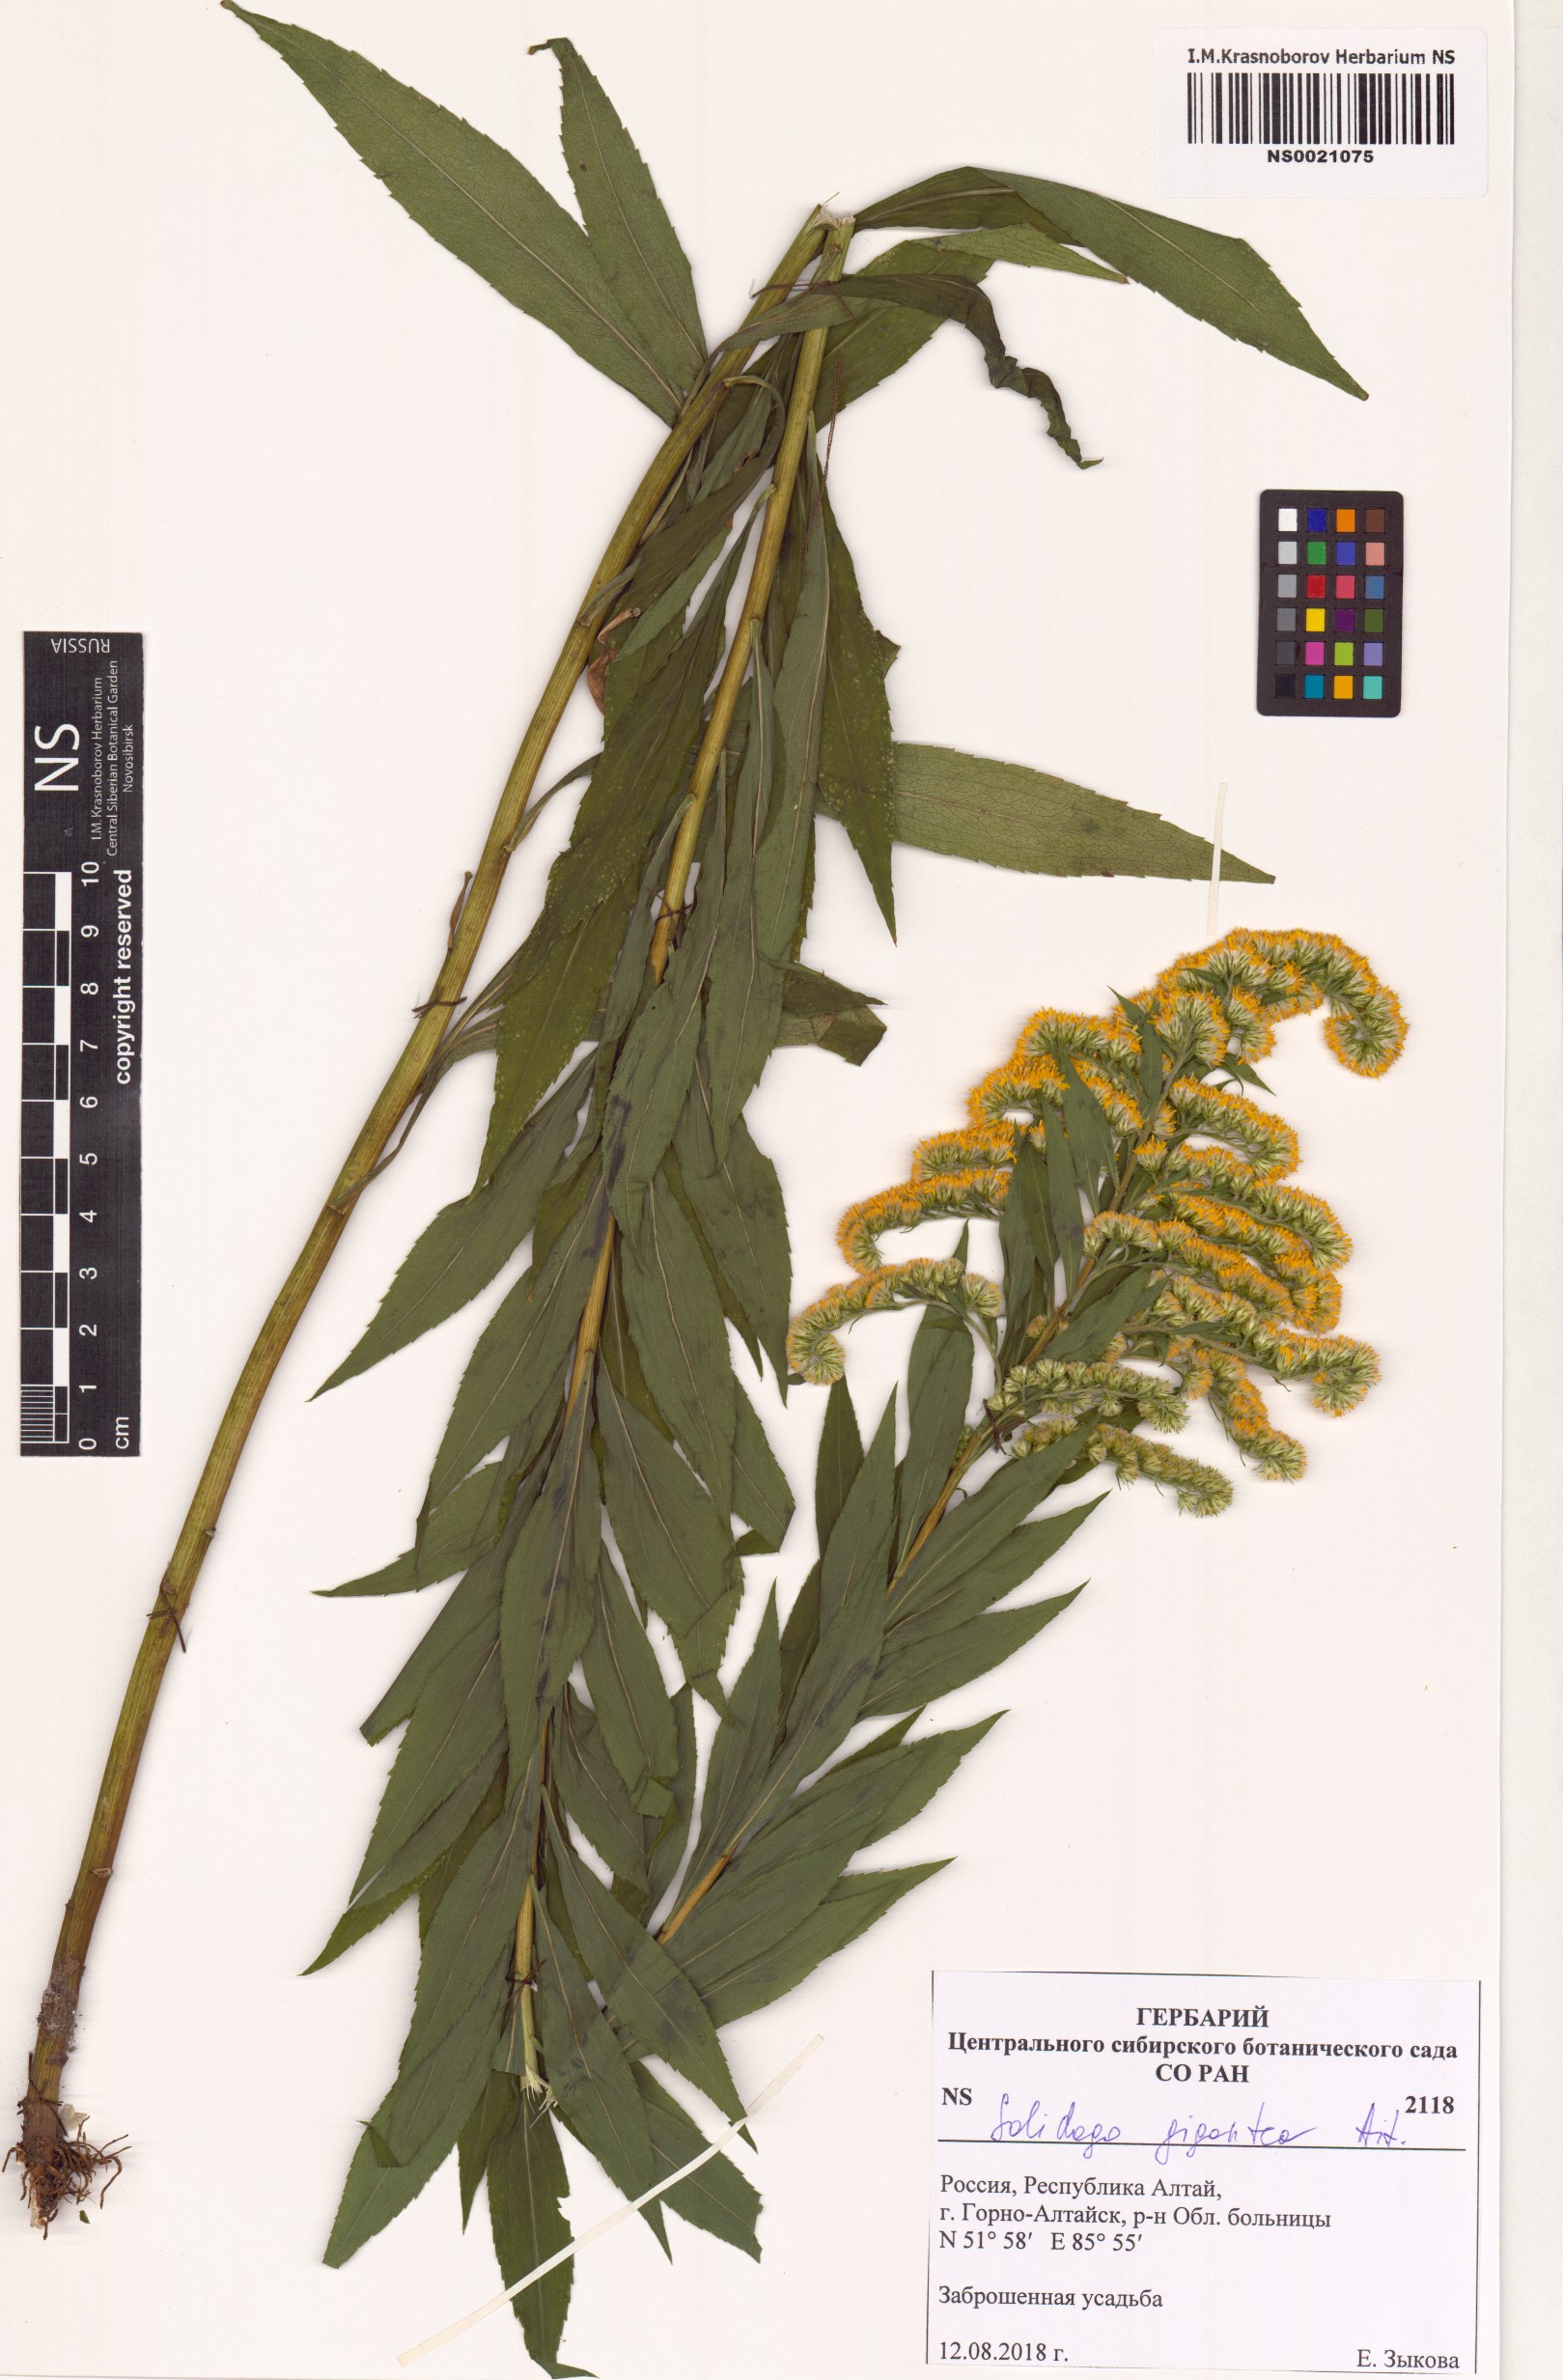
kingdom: Plantae
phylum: Tracheophyta
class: Magnoliopsida
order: Asterales
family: Asteraceae
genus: Solidago
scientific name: Solidago gigantea
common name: Giant goldenrod
